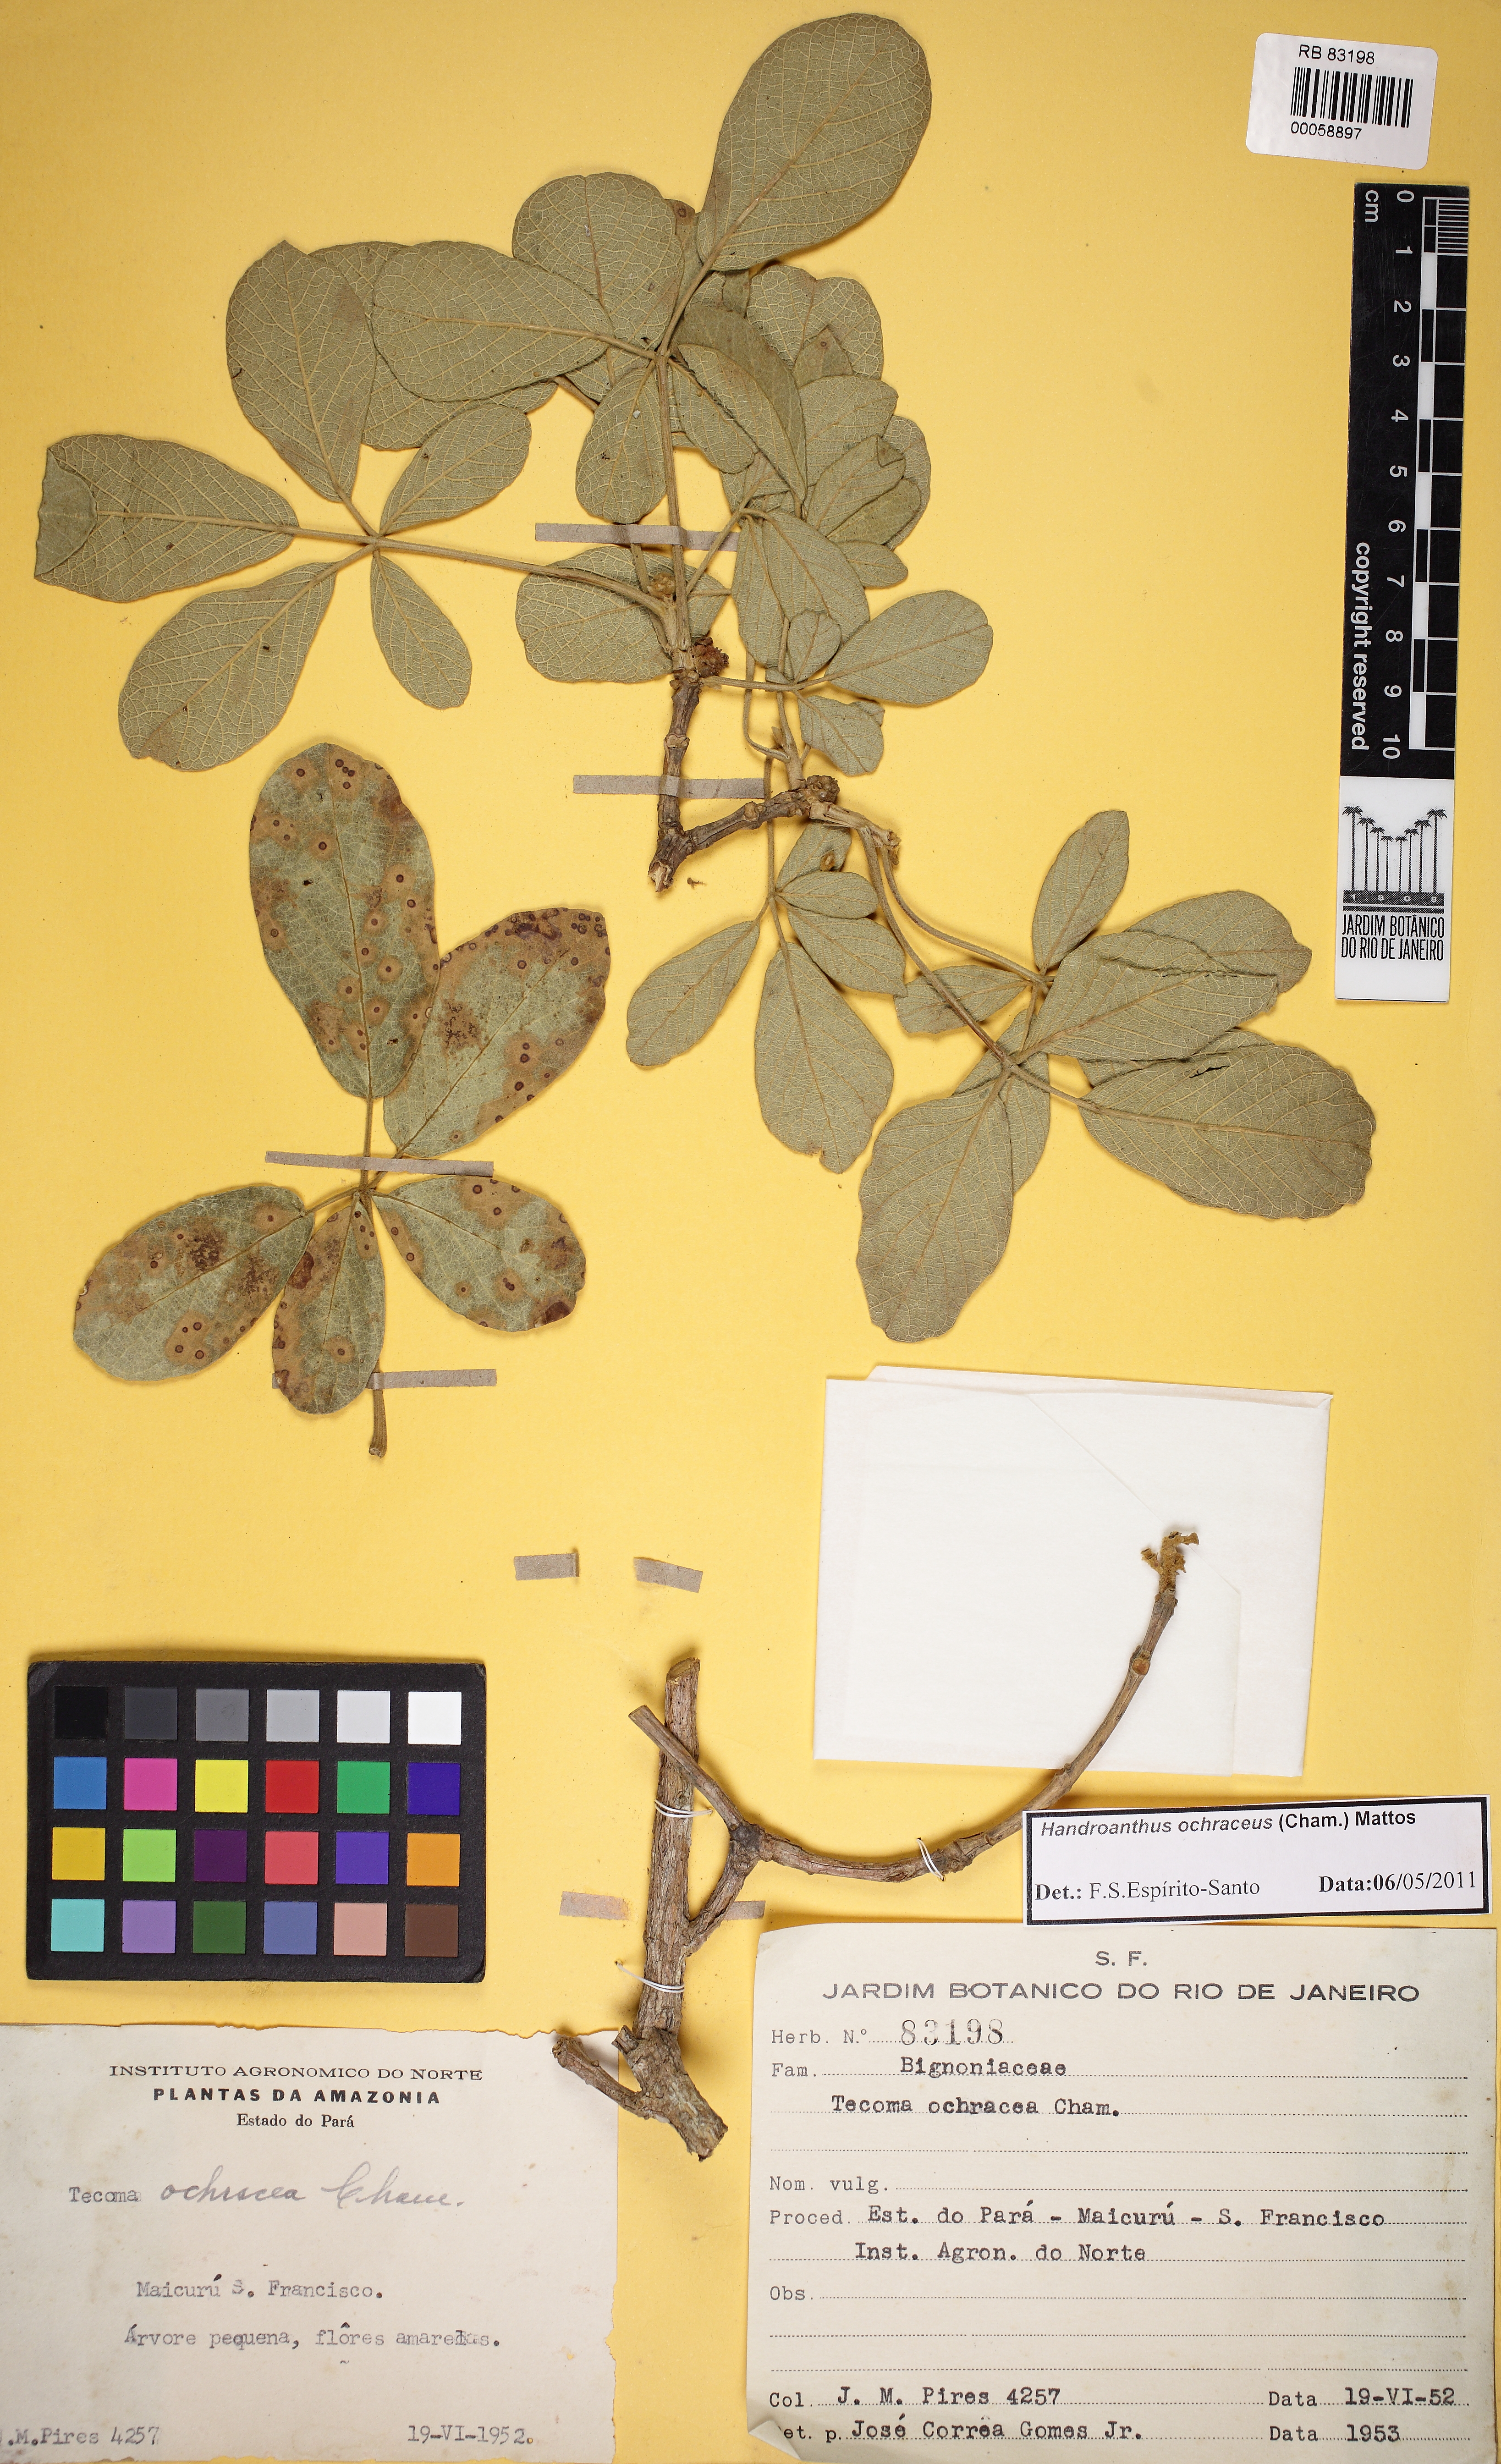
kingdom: Plantae
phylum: Tracheophyta
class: Magnoliopsida
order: Lamiales
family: Bignoniaceae
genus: Handroanthus
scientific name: Handroanthus
